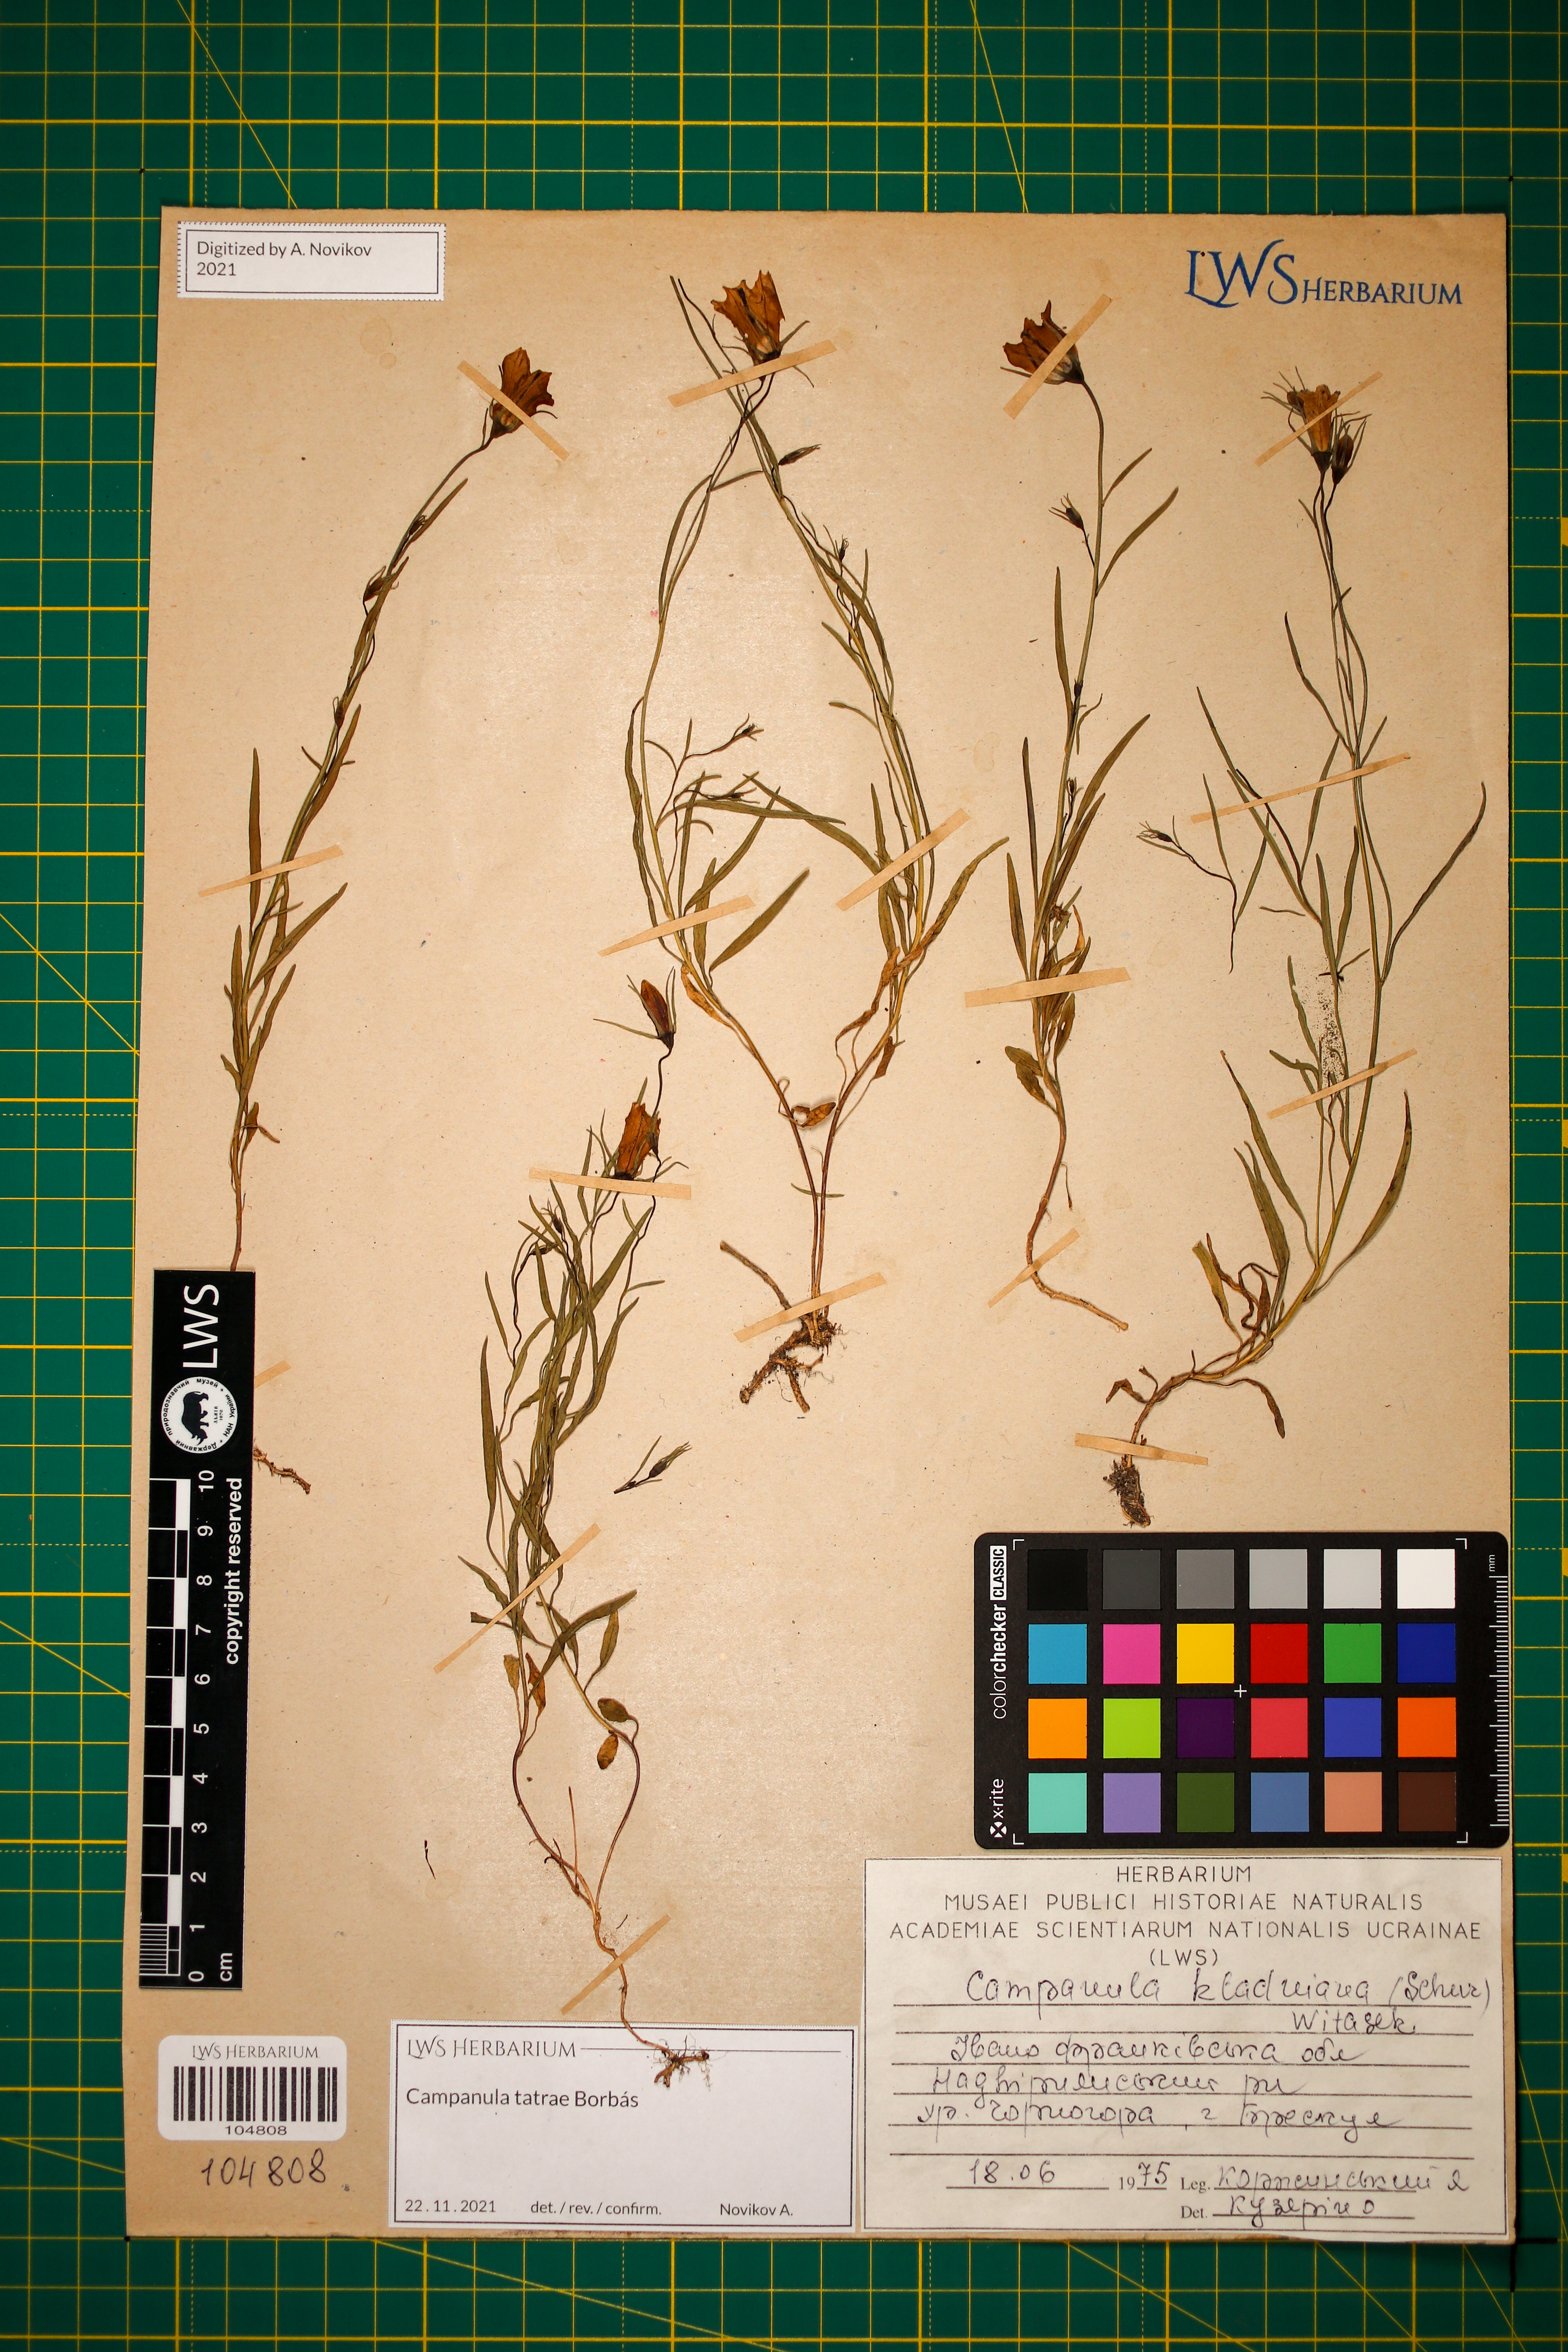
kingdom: Plantae
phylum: Tracheophyta
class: Magnoliopsida
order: Asterales
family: Campanulaceae
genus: Campanula
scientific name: Campanula kladniana
